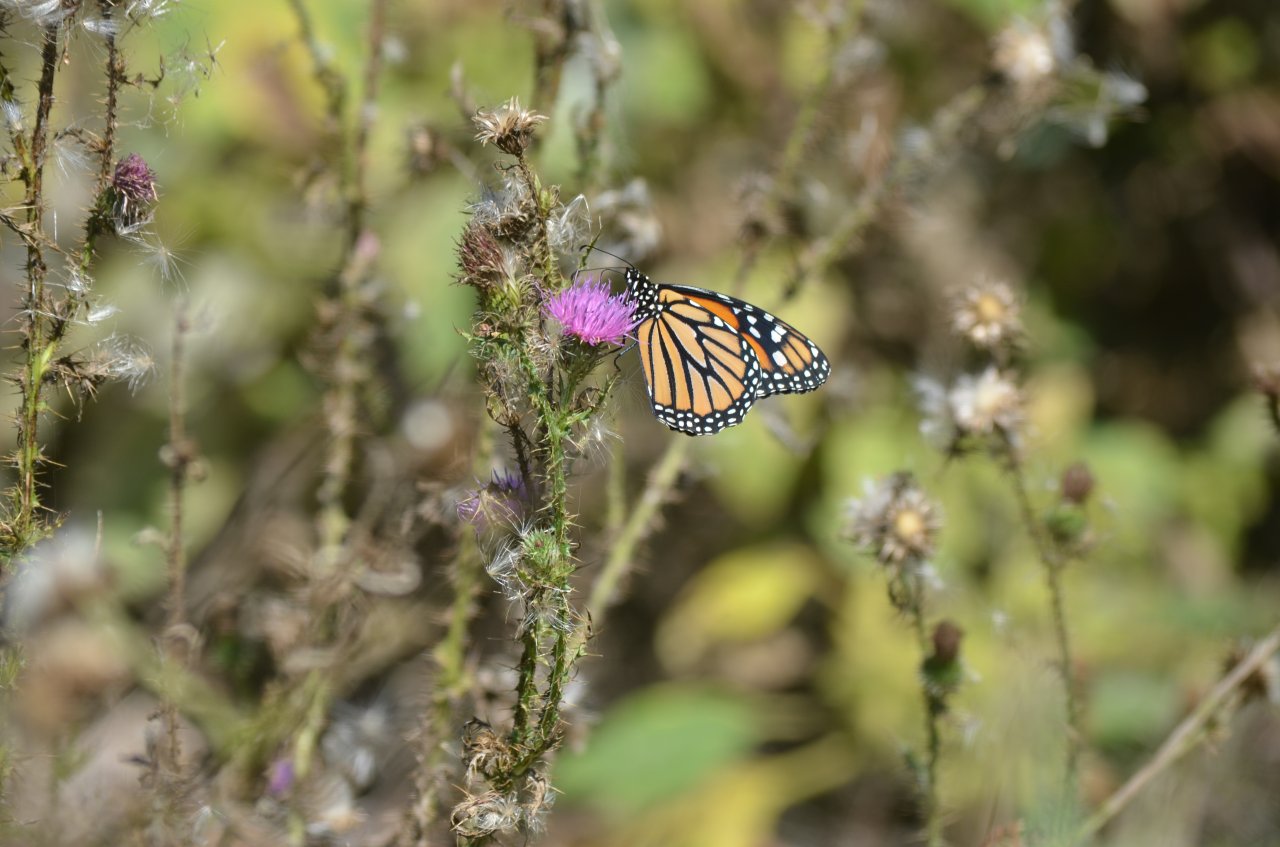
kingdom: Animalia
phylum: Arthropoda
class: Insecta
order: Lepidoptera
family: Nymphalidae
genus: Danaus
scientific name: Danaus plexippus
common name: Monarch
